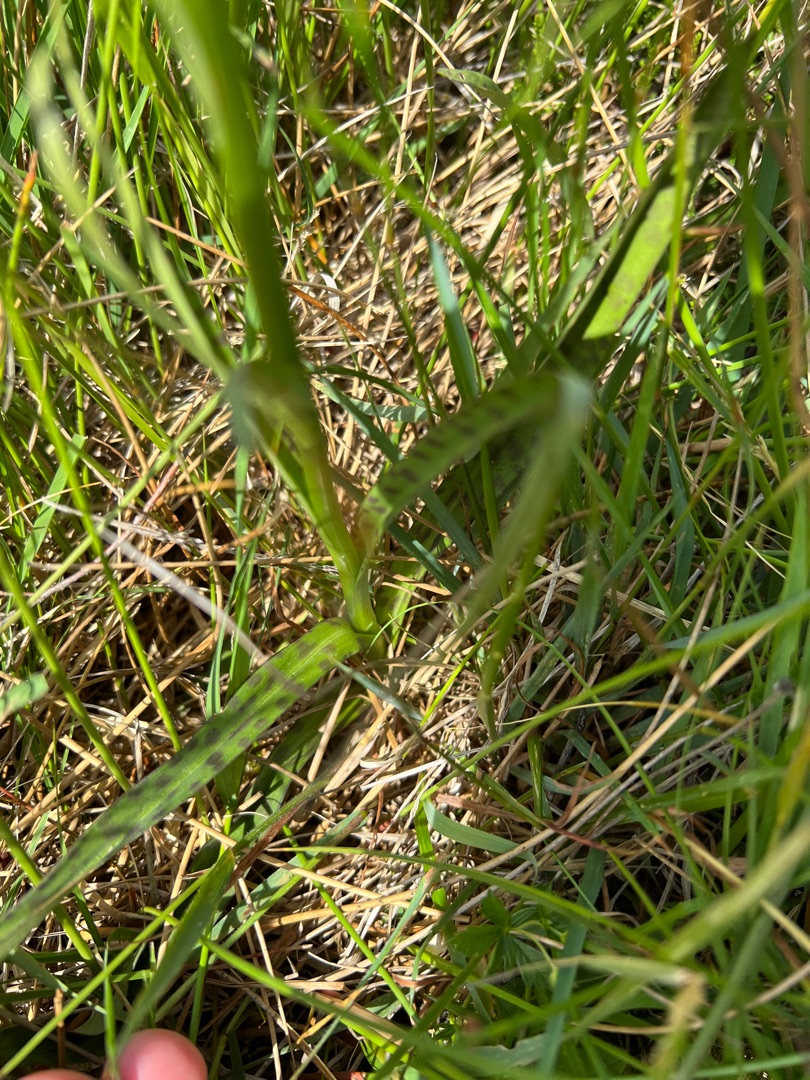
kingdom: Plantae
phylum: Tracheophyta
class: Liliopsida
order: Asparagales
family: Orchidaceae
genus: Dactylorhiza
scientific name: Dactylorhiza maculata
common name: Plettet gøgeurt (underart)
